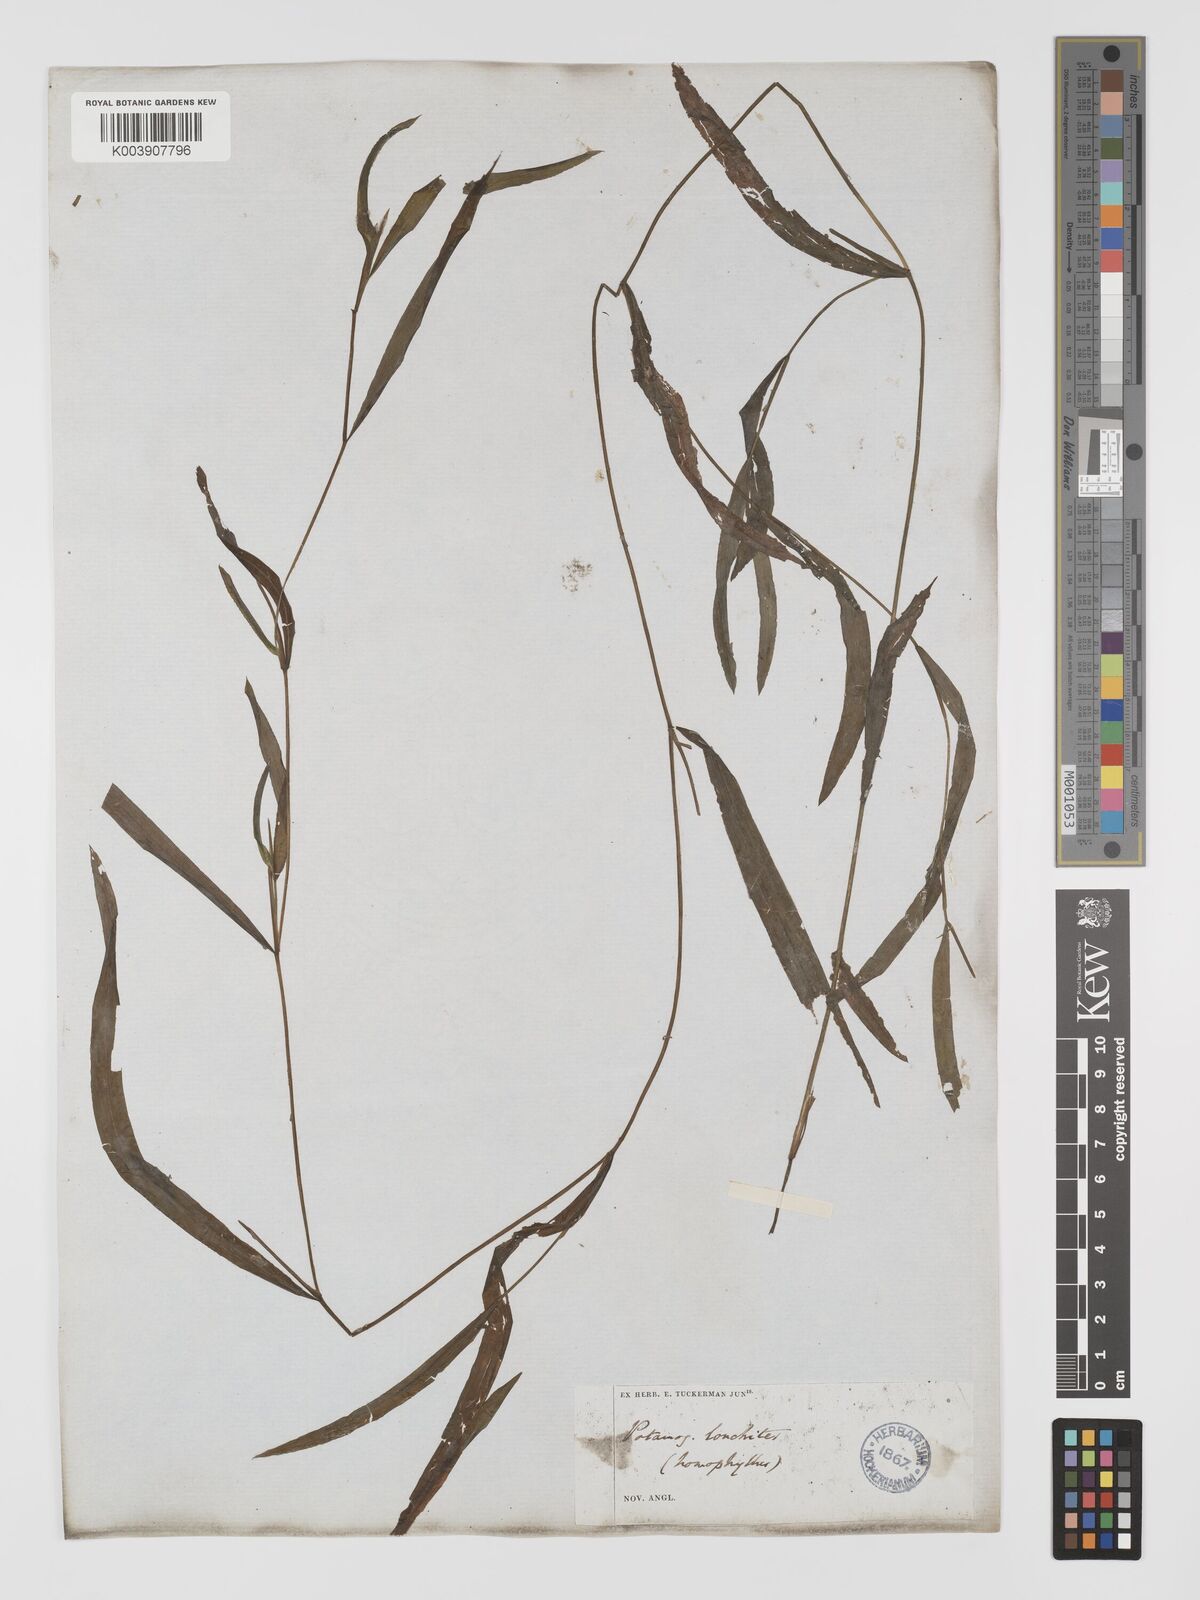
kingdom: Plantae
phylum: Tracheophyta
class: Liliopsida
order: Alismatales
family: Potamogetonaceae
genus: Potamogeton
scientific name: Potamogeton gramineus
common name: Various-leaved pondweed
